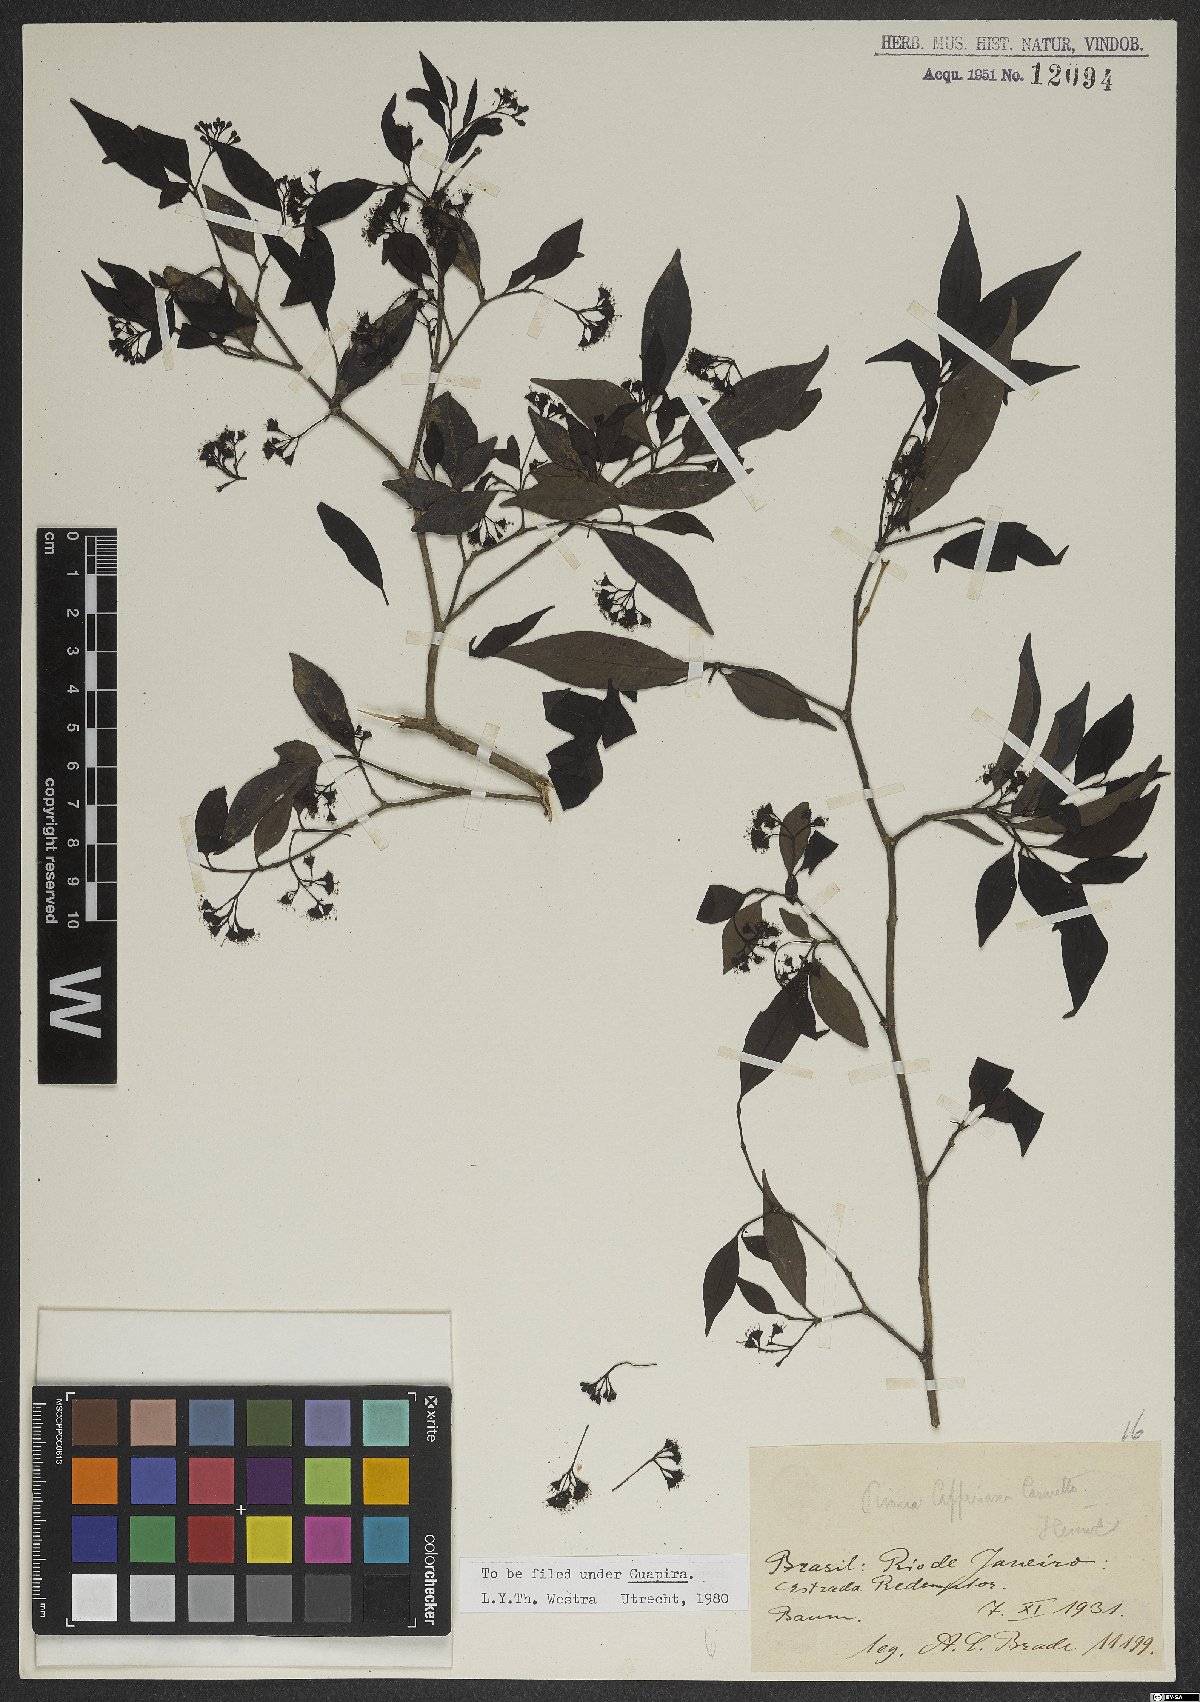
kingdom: Plantae
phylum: Tracheophyta
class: Magnoliopsida
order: Caryophyllales
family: Nyctaginaceae
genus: Guapira
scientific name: Guapira opposita
